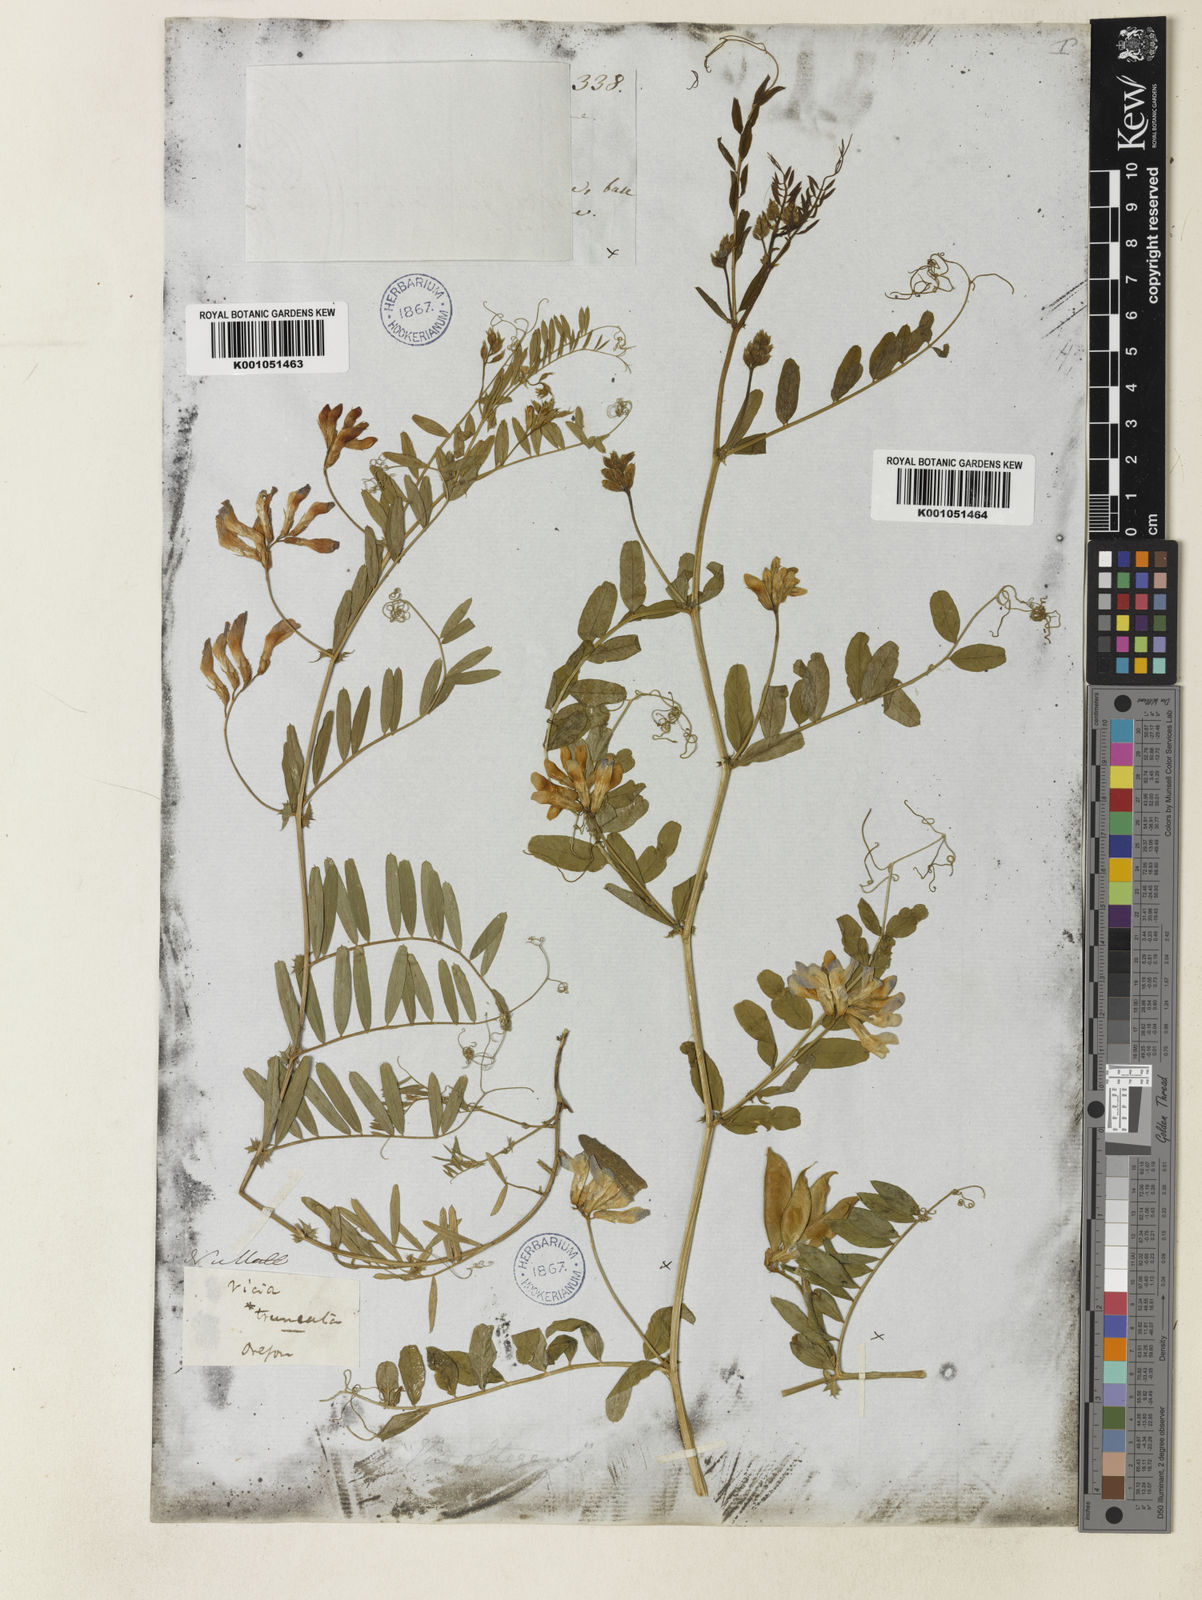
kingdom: Plantae
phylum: Tracheophyta
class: Magnoliopsida
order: Fabales
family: Fabaceae
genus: Vicia
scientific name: Vicia americana
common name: American vetch
